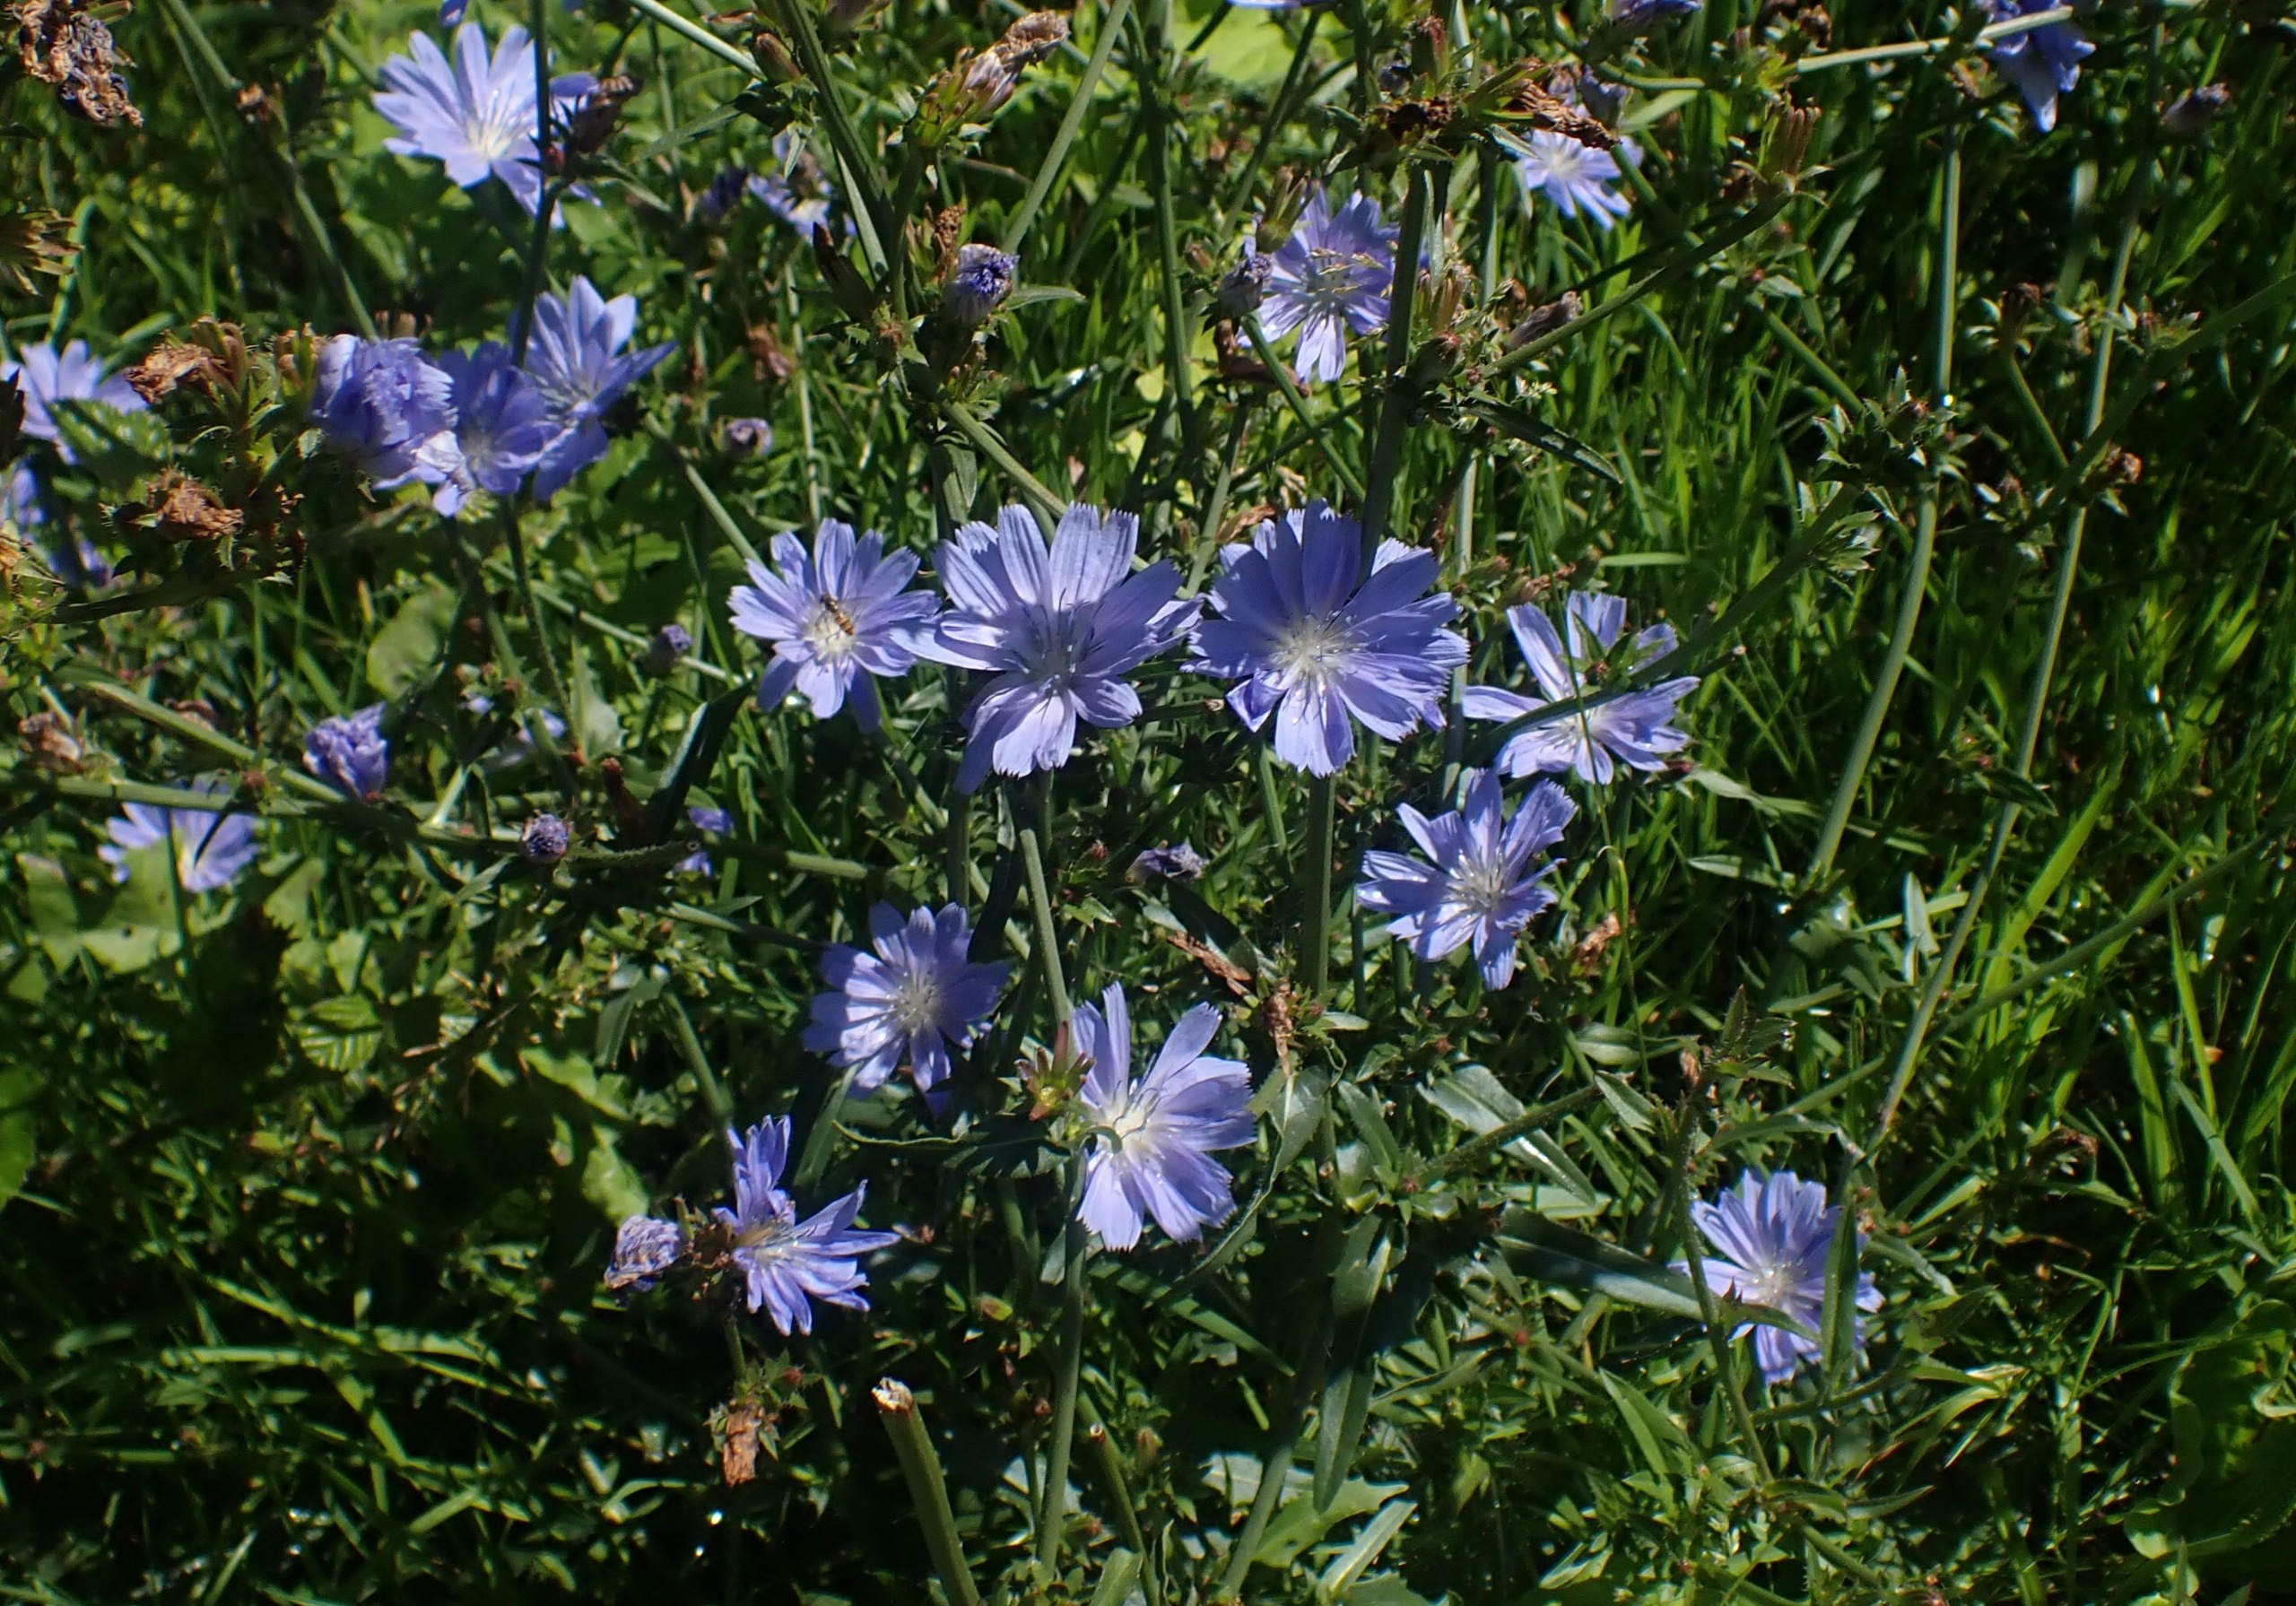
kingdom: Plantae
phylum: Tracheophyta
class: Magnoliopsida
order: Asterales
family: Asteraceae
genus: Cichorium
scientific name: Cichorium intybus
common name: Cikorie
